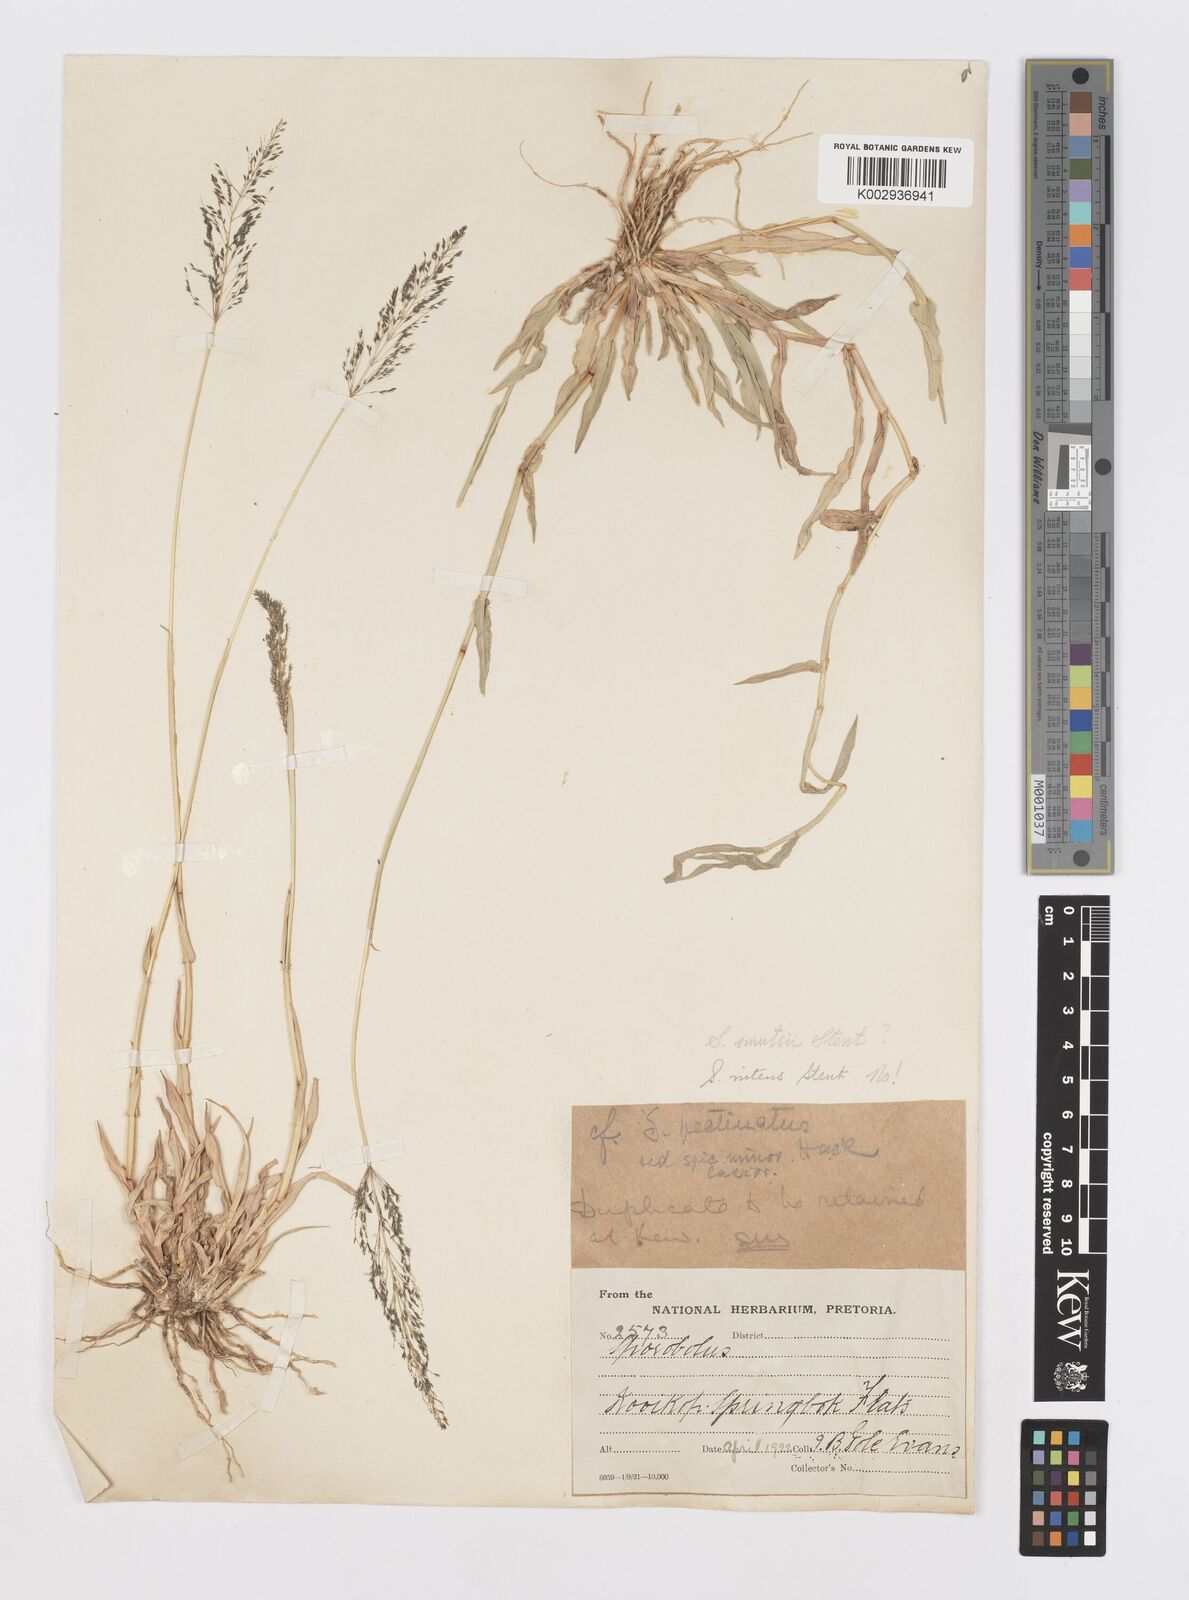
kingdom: Plantae
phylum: Tracheophyta
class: Liliopsida
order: Poales
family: Poaceae
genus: Sporobolus
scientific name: Sporobolus cordofanus
